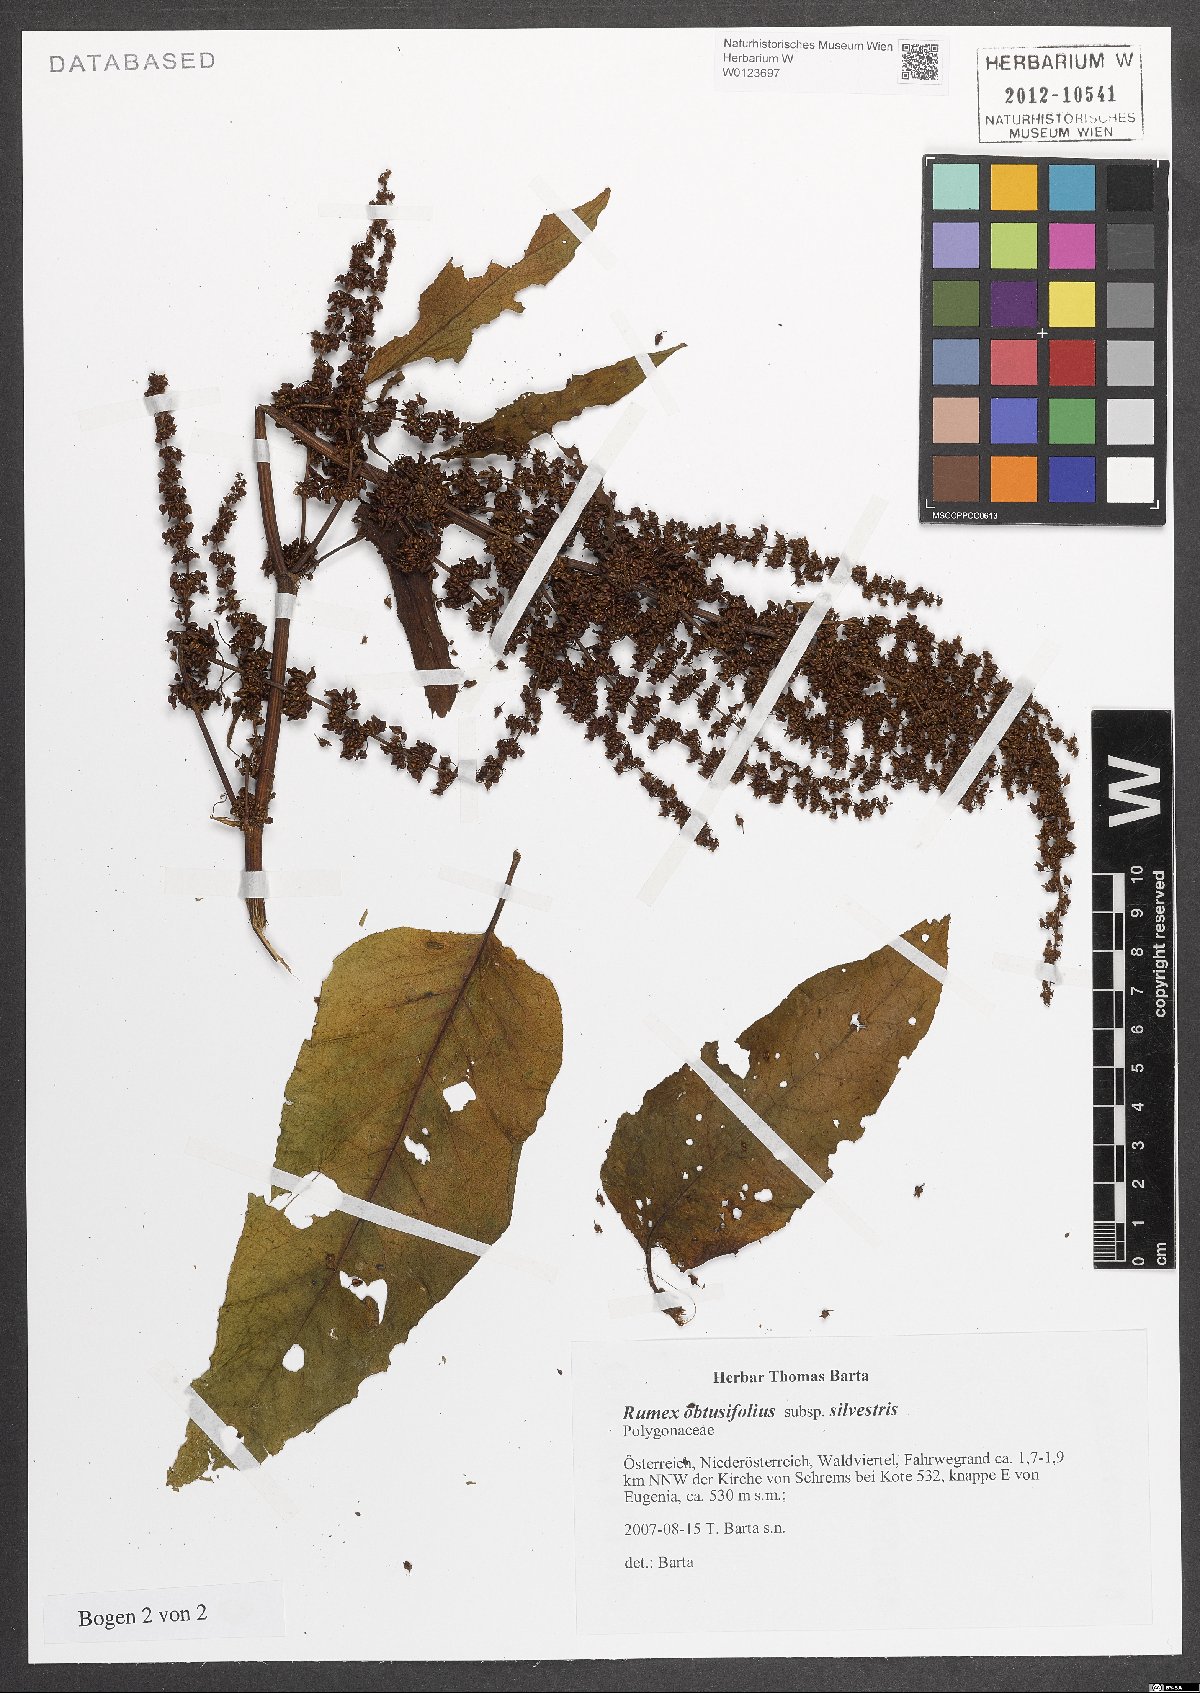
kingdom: Plantae
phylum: Tracheophyta
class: Magnoliopsida
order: Caryophyllales
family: Polygonaceae
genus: Rumex
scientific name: Rumex obtusifolius
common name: Bitter dock
